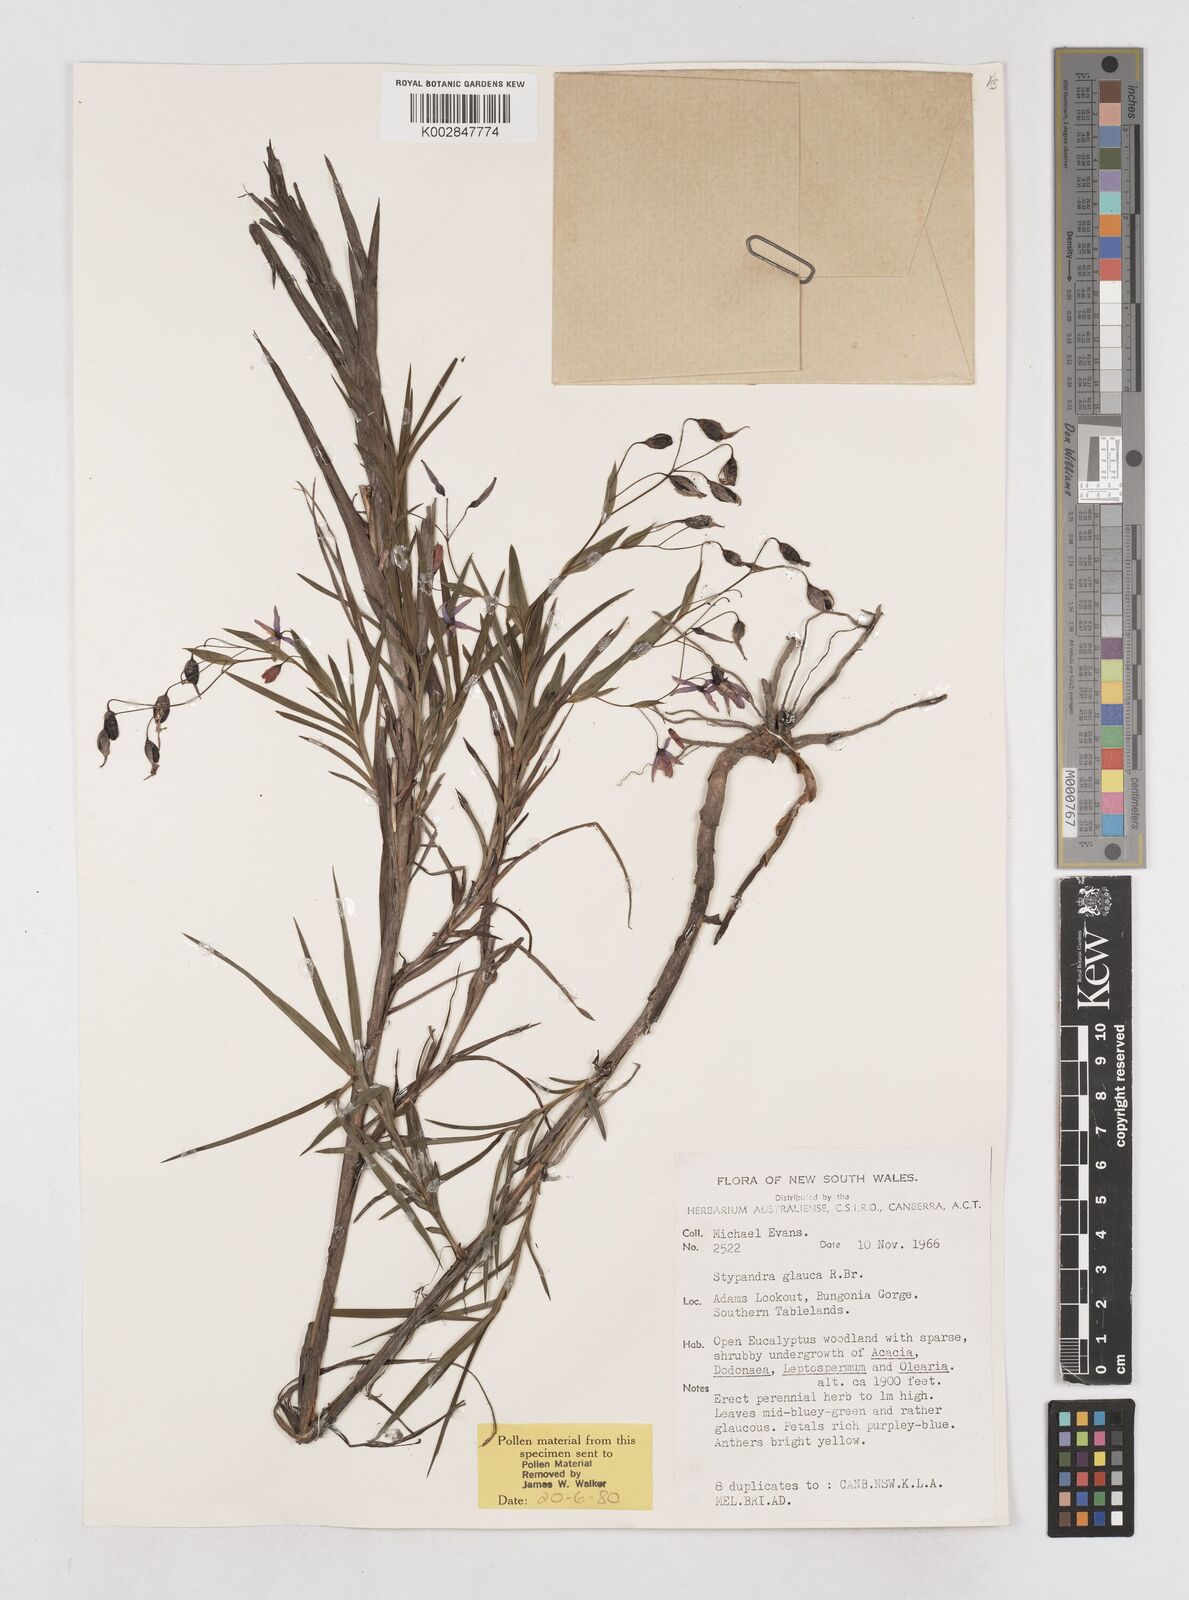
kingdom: Plantae
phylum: Tracheophyta
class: Liliopsida
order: Asparagales
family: Asphodelaceae
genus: Stypandra
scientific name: Stypandra glauca
